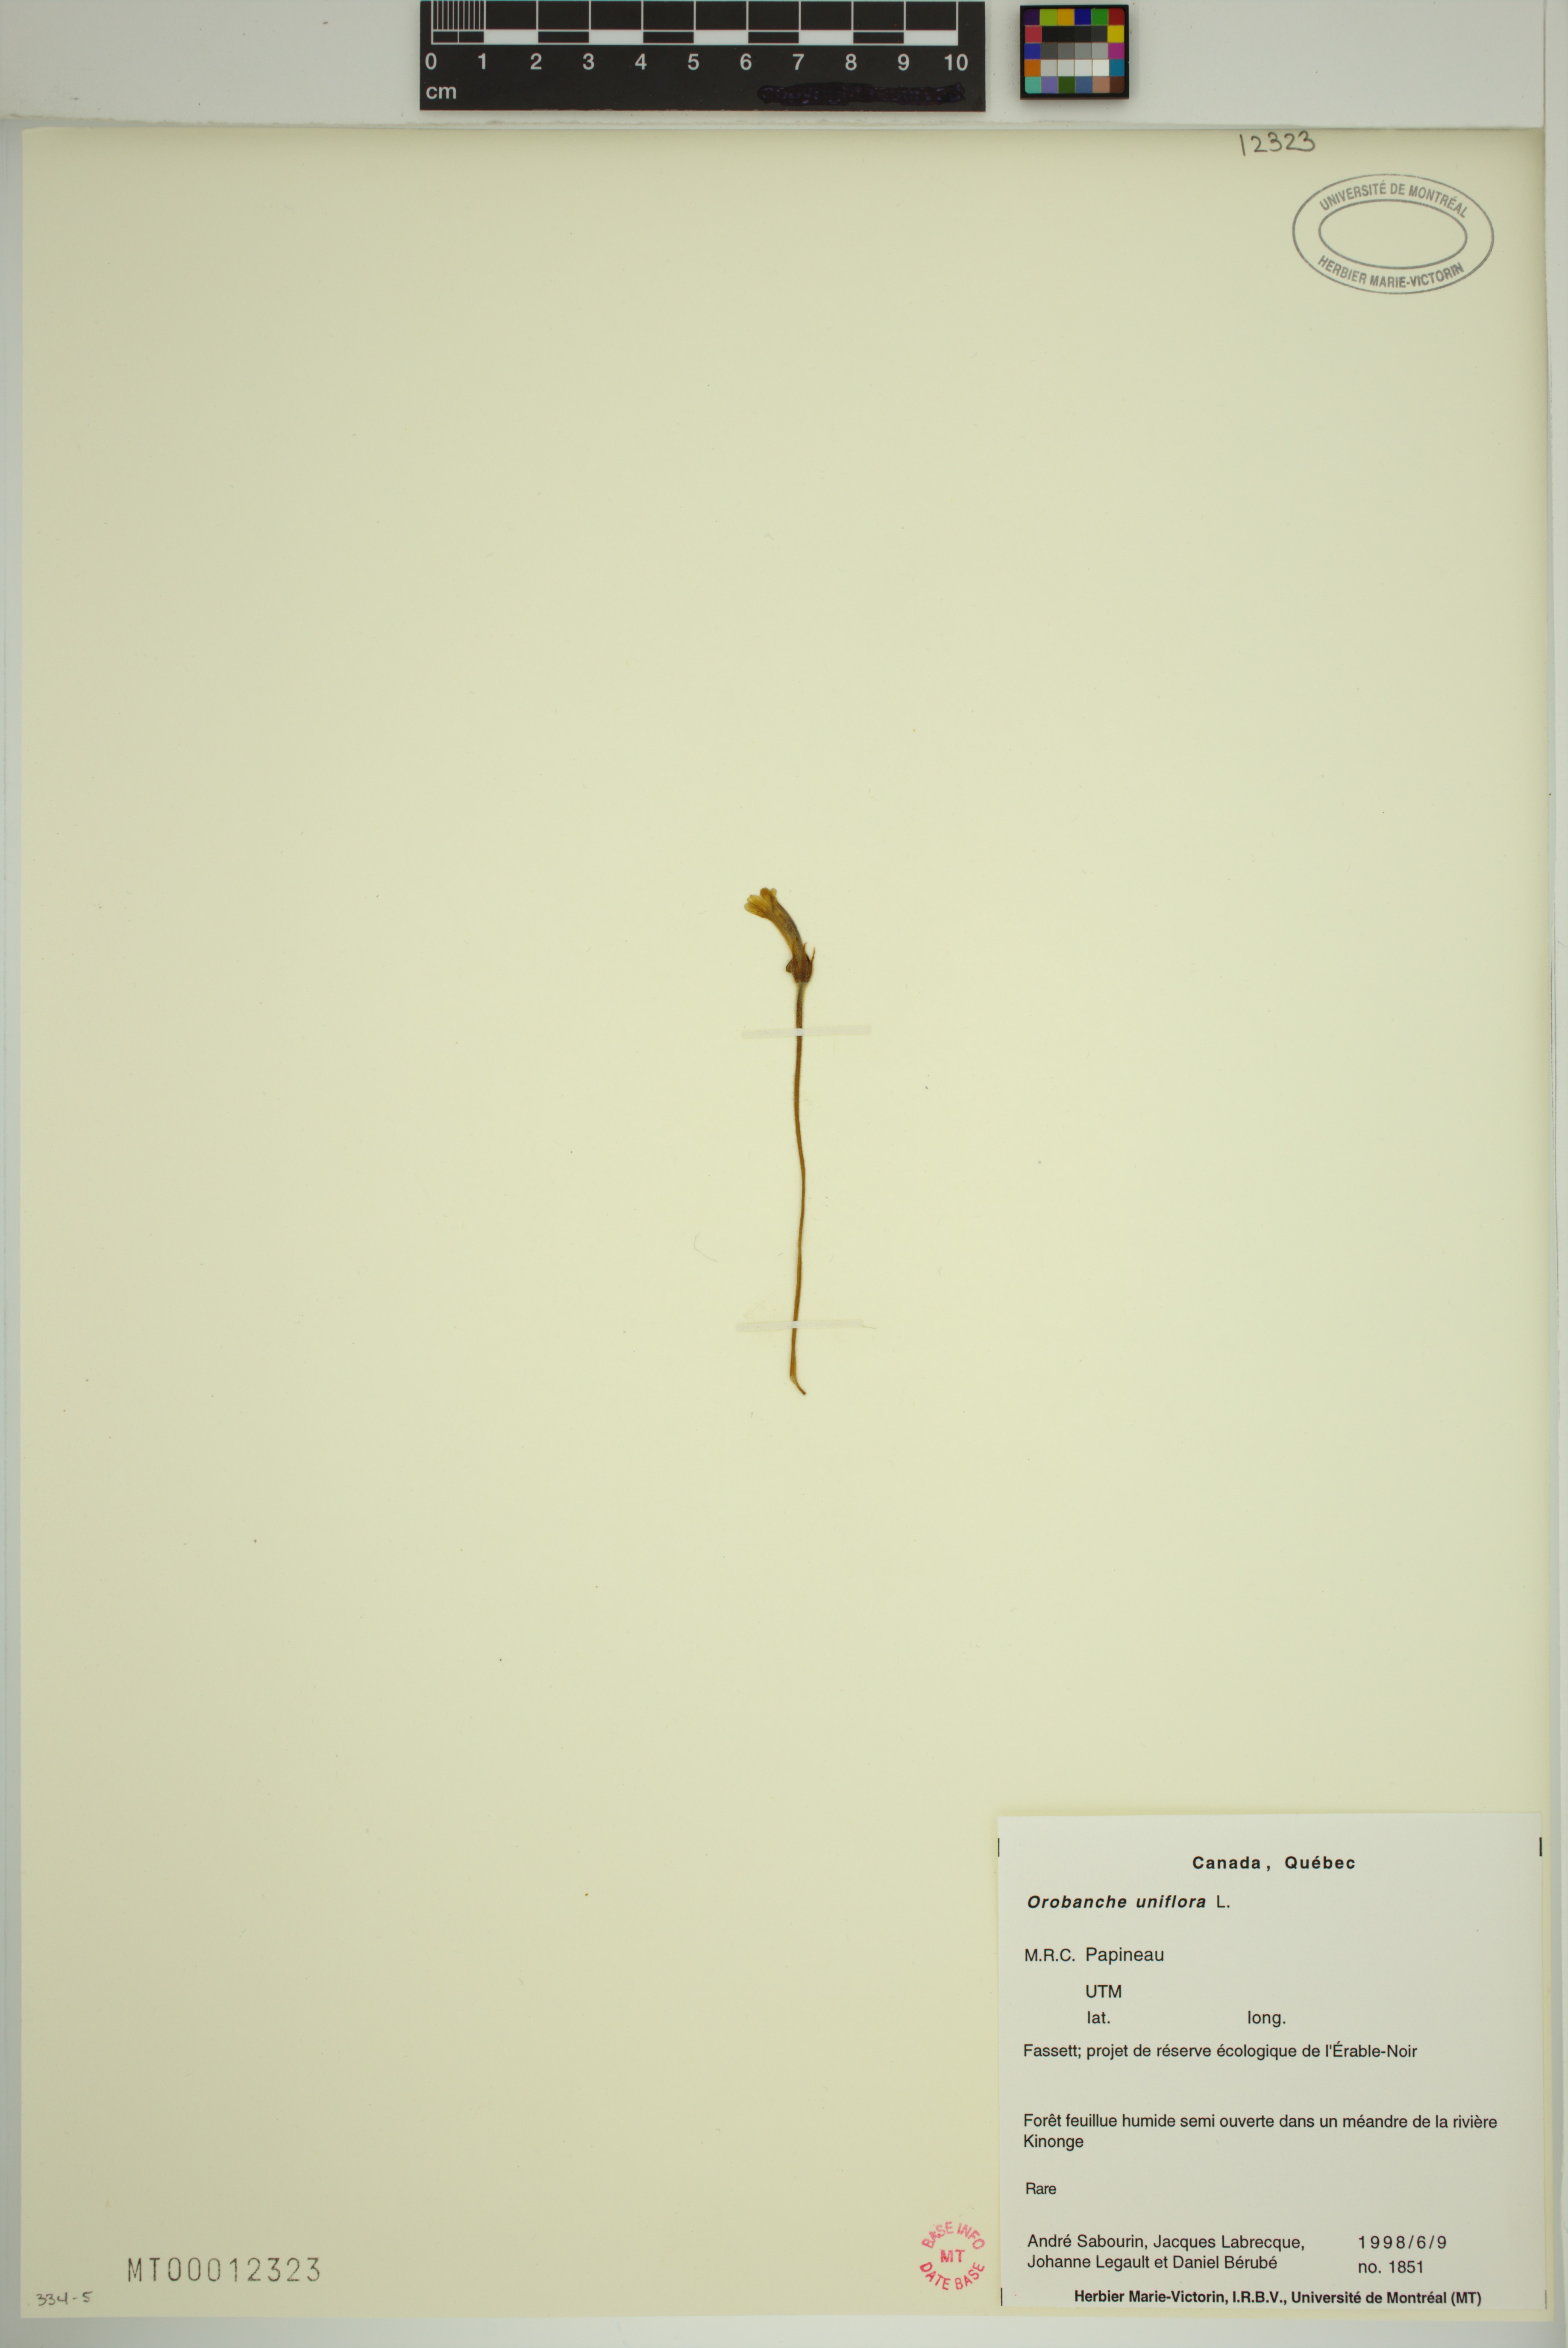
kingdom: Plantae
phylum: Tracheophyta
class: Magnoliopsida
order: Lamiales
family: Orobanchaceae
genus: Aphyllon
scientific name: Aphyllon uniflorum
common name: One-flowered broomrape
